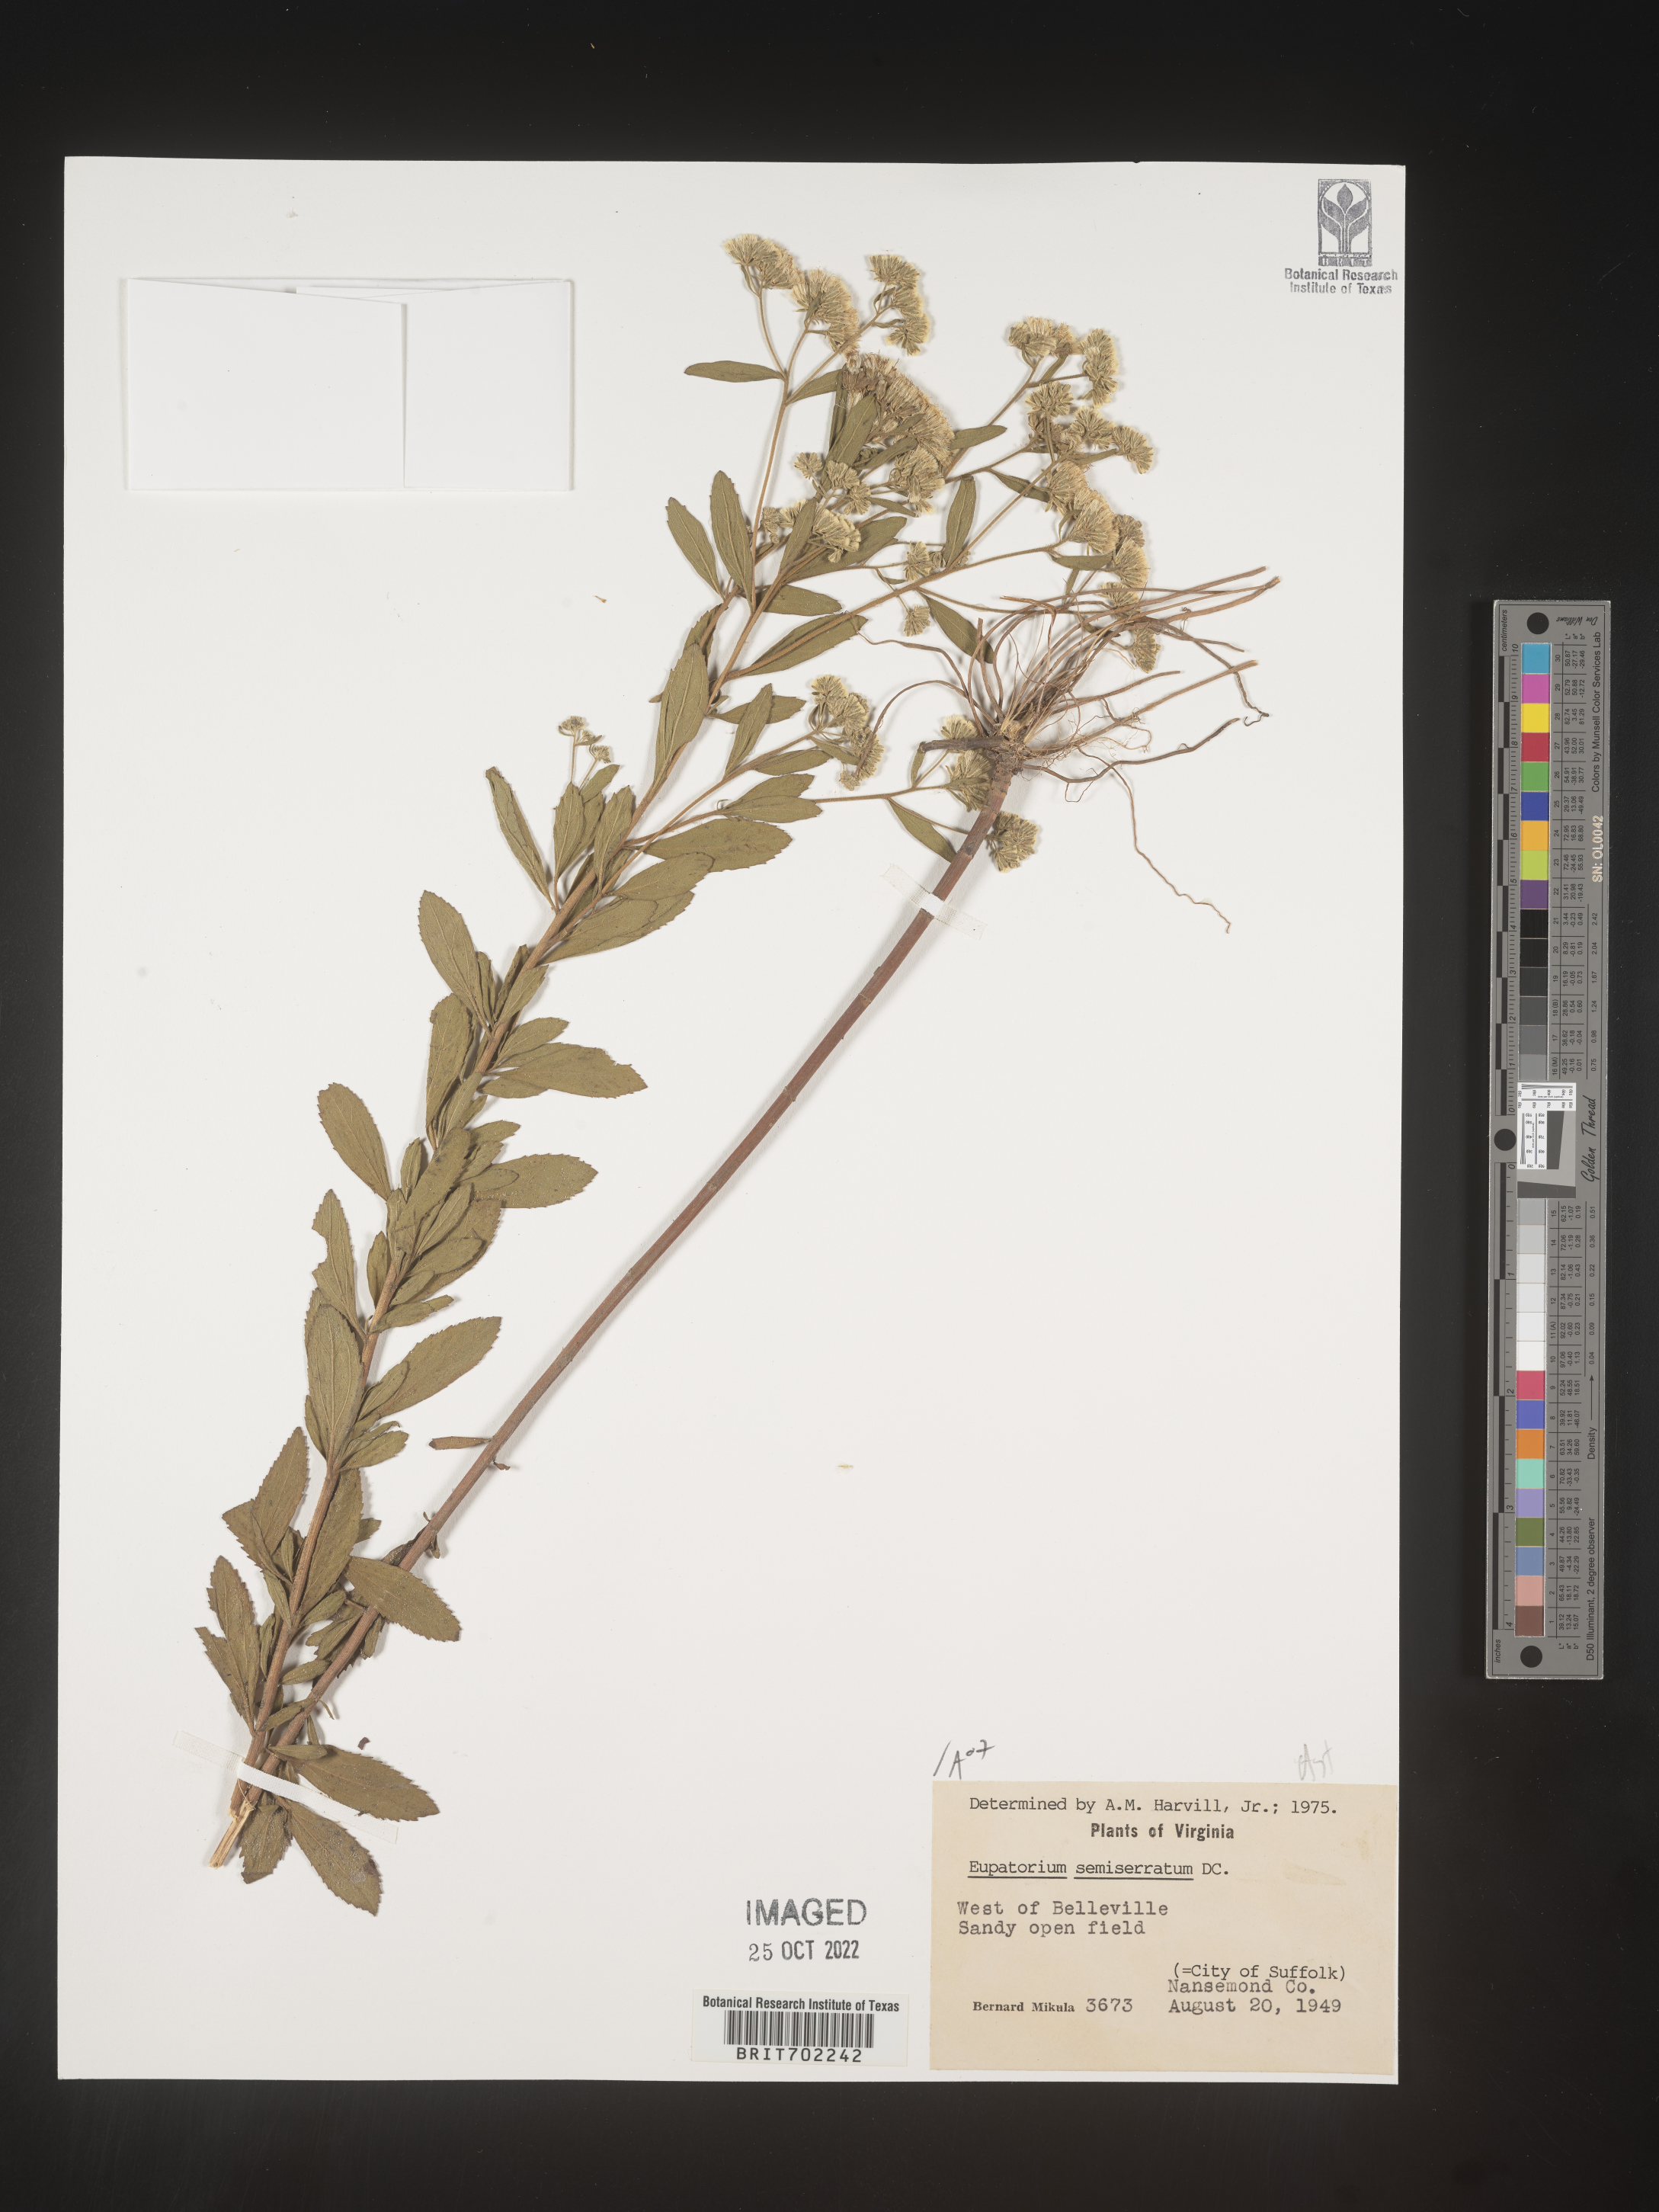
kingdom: Plantae
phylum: Tracheophyta
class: Magnoliopsida
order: Asterales
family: Asteraceae
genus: Eupatorium
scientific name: Eupatorium semiserratum
